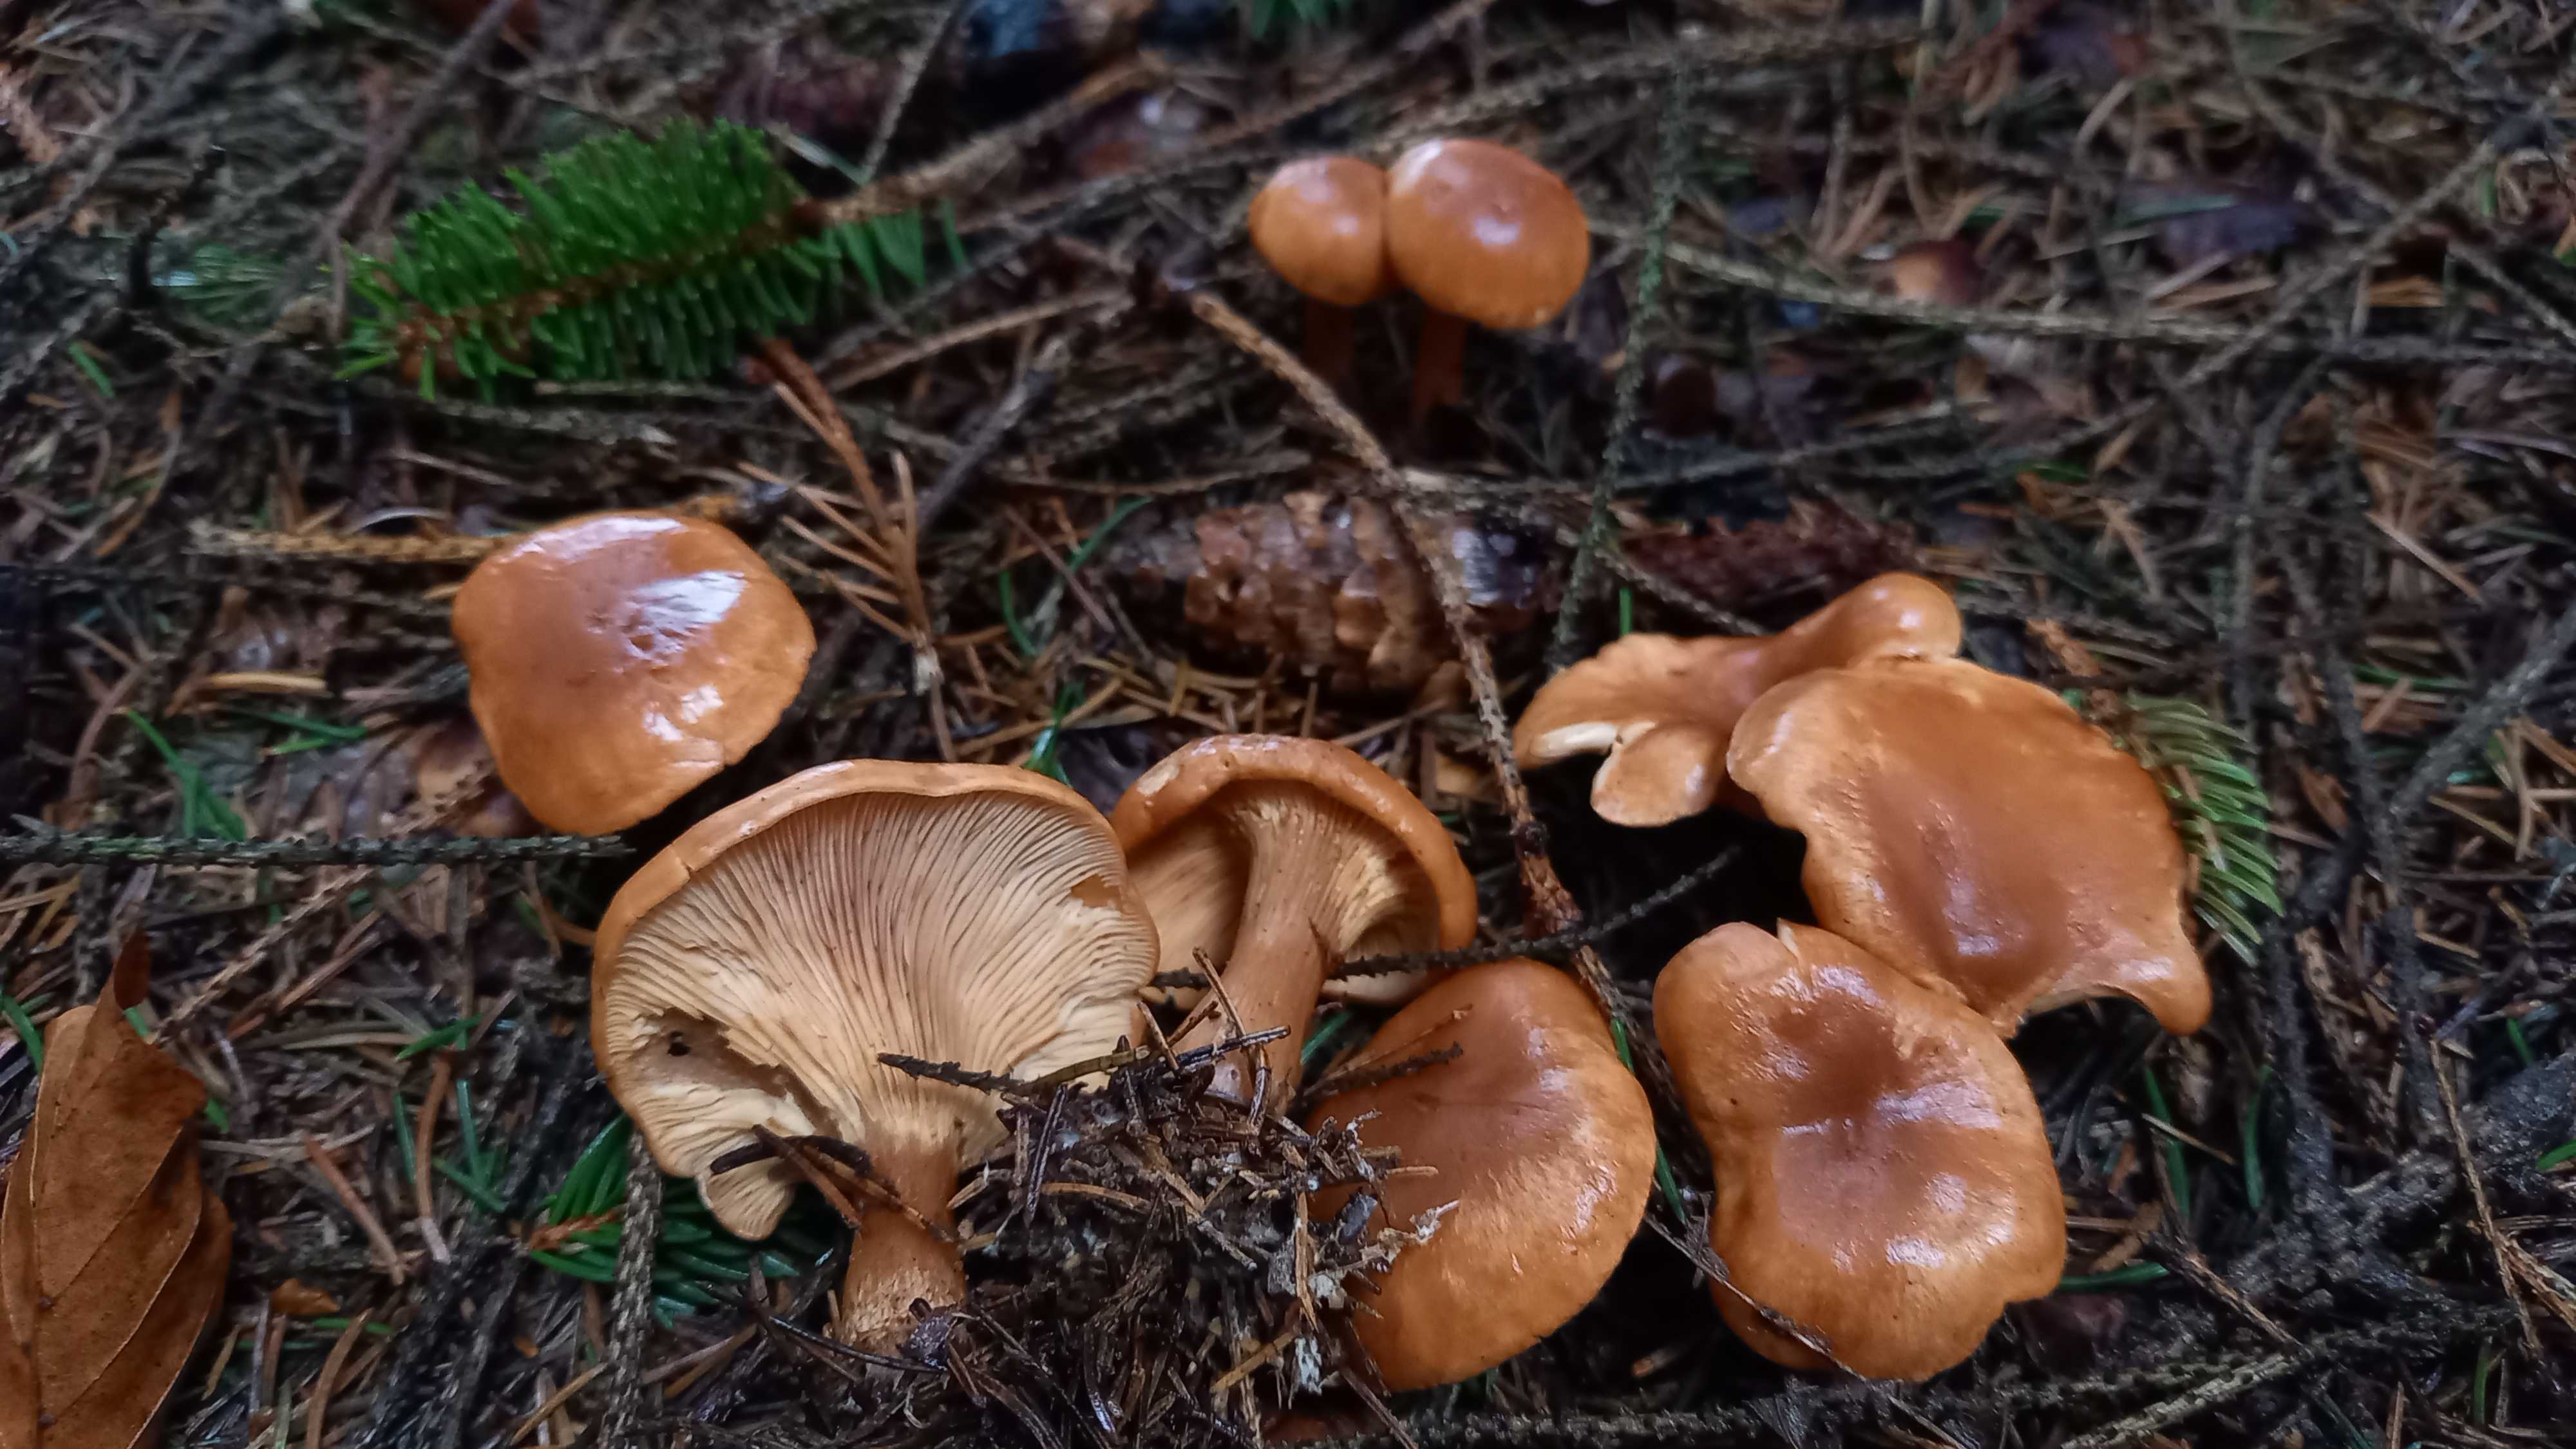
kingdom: Fungi
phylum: Basidiomycota
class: Agaricomycetes
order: Agaricales
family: Tricholomataceae
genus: Paralepista
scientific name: Paralepista flaccida
